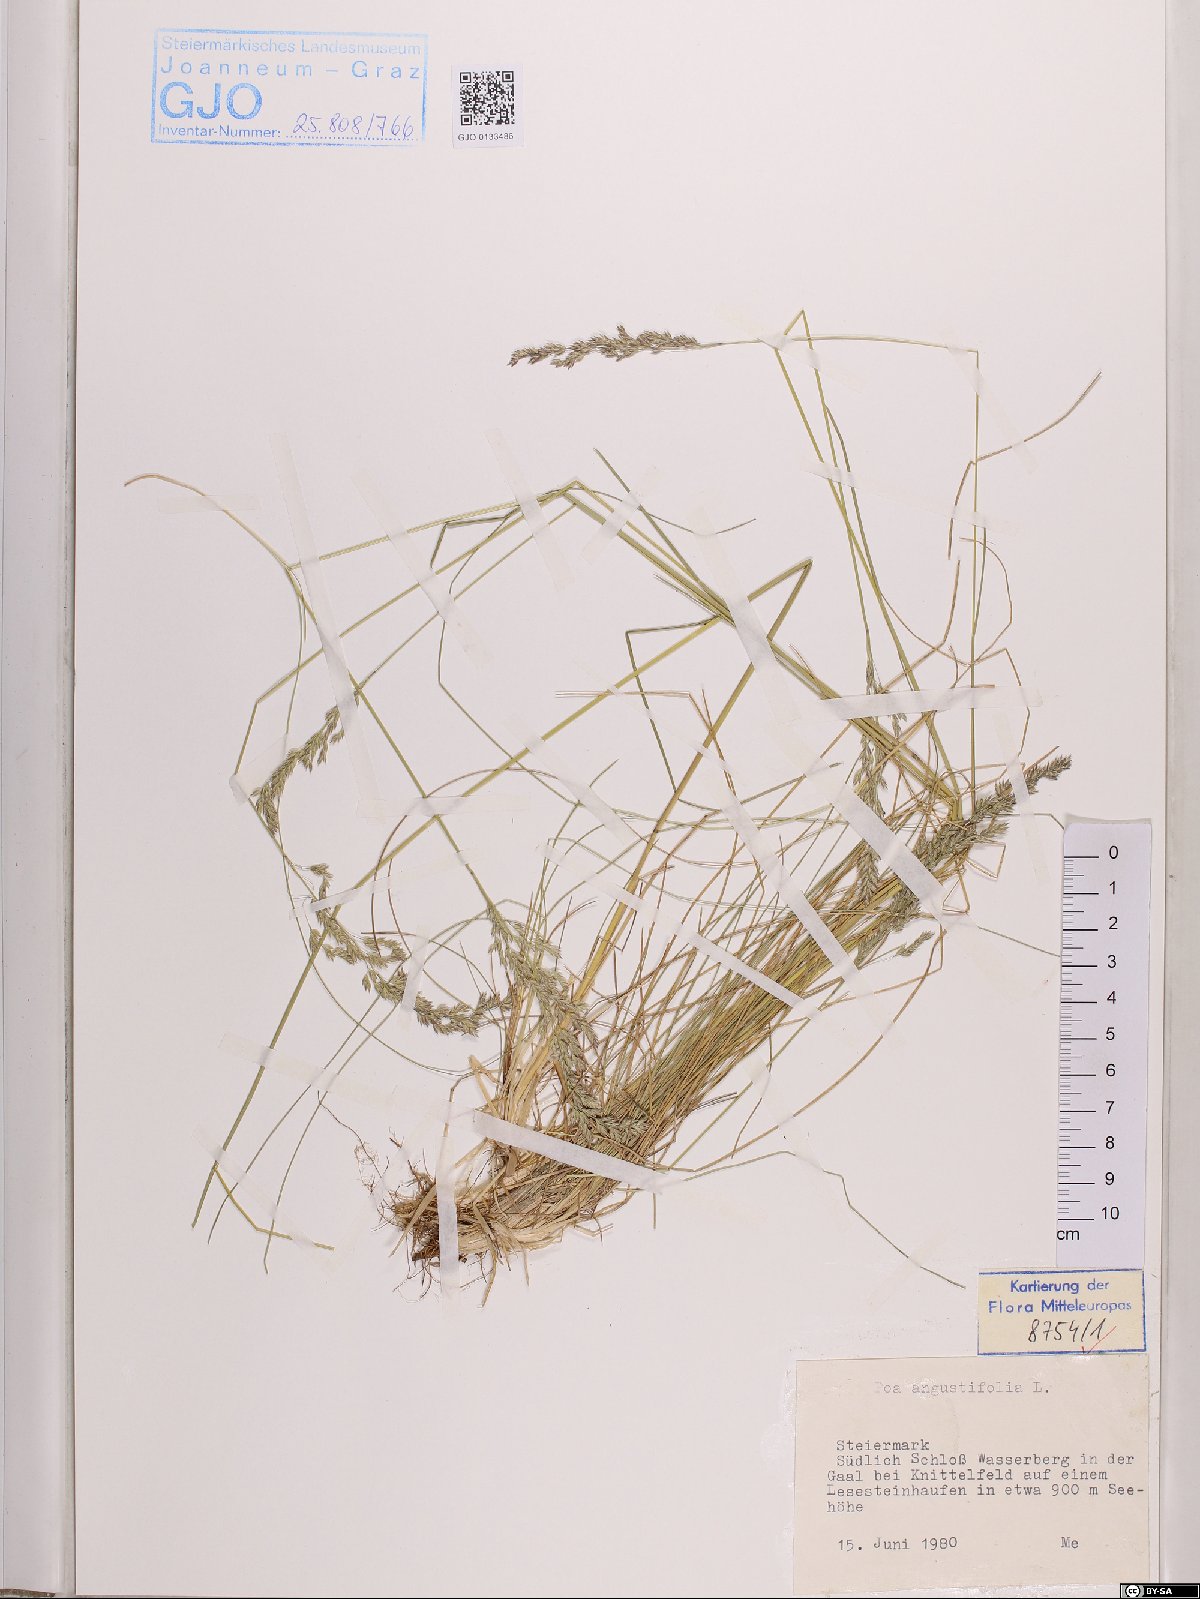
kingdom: Plantae
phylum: Tracheophyta
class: Liliopsida
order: Poales
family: Poaceae
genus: Poa
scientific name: Poa angustifolia
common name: Narrow-leaved meadow-grass
